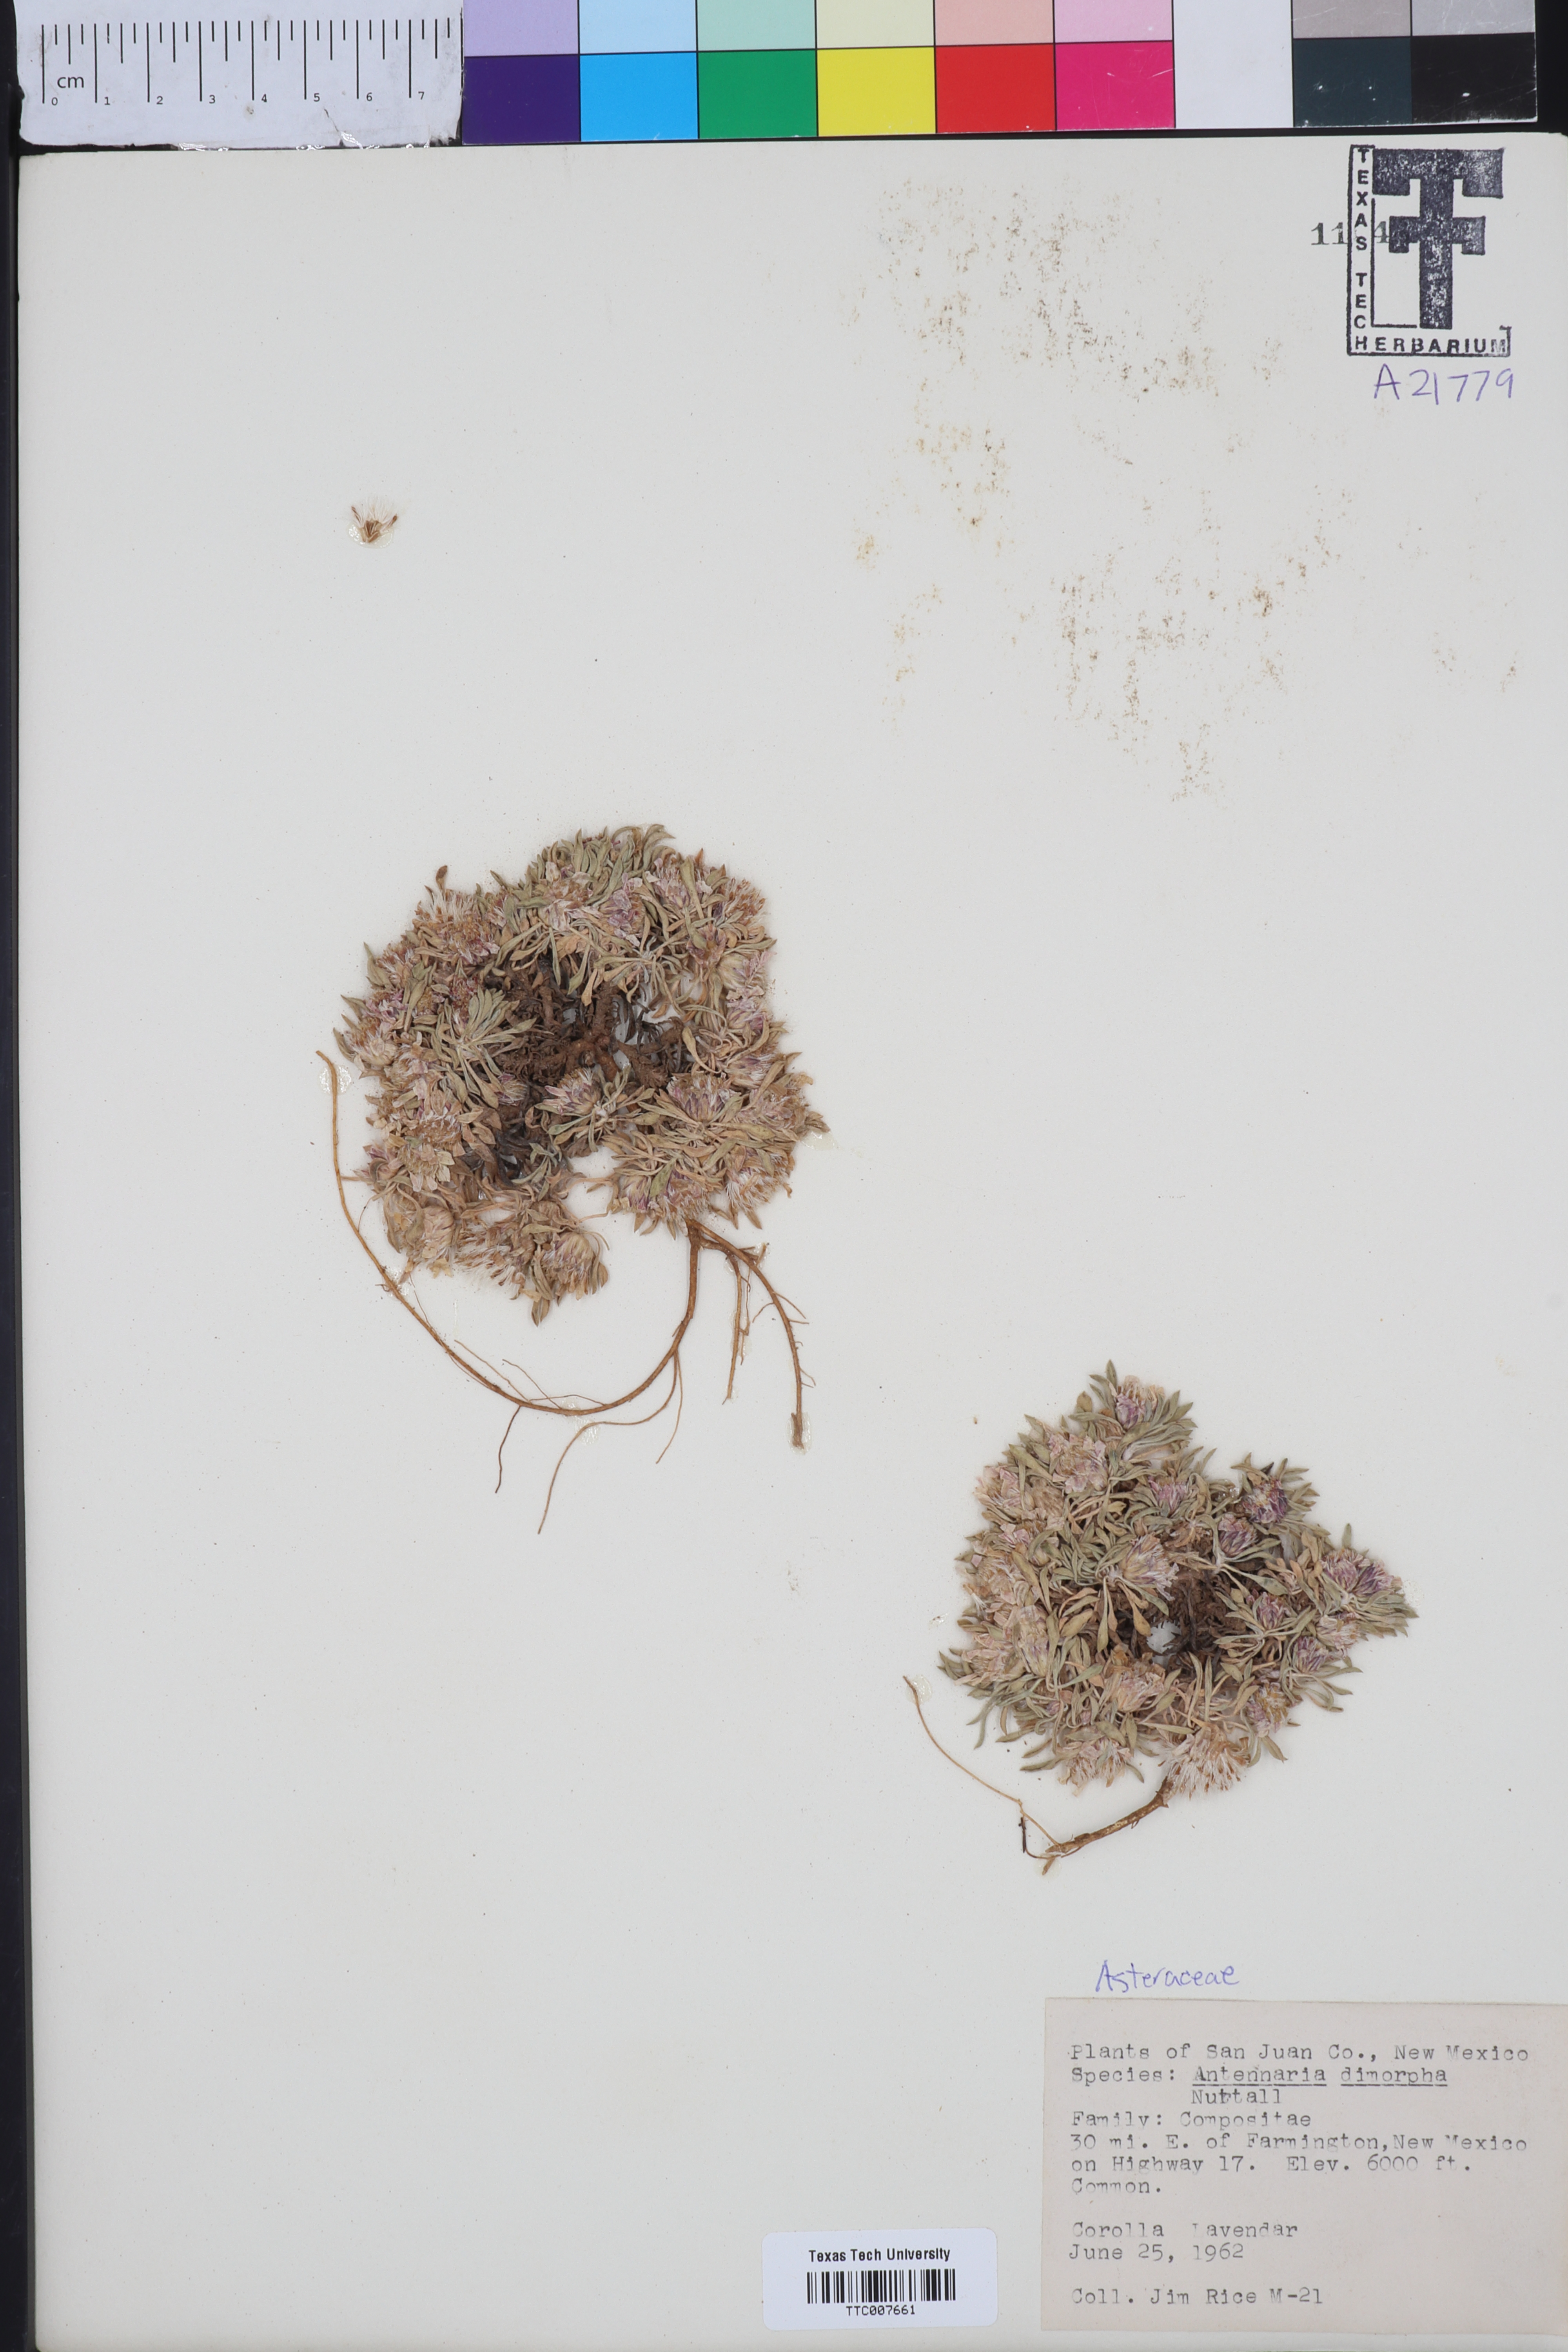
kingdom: Plantae
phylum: Tracheophyta
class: Magnoliopsida
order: Asterales
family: Asteraceae
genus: Antennaria
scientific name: Antennaria dimorpha
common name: Cushion pussytoes
